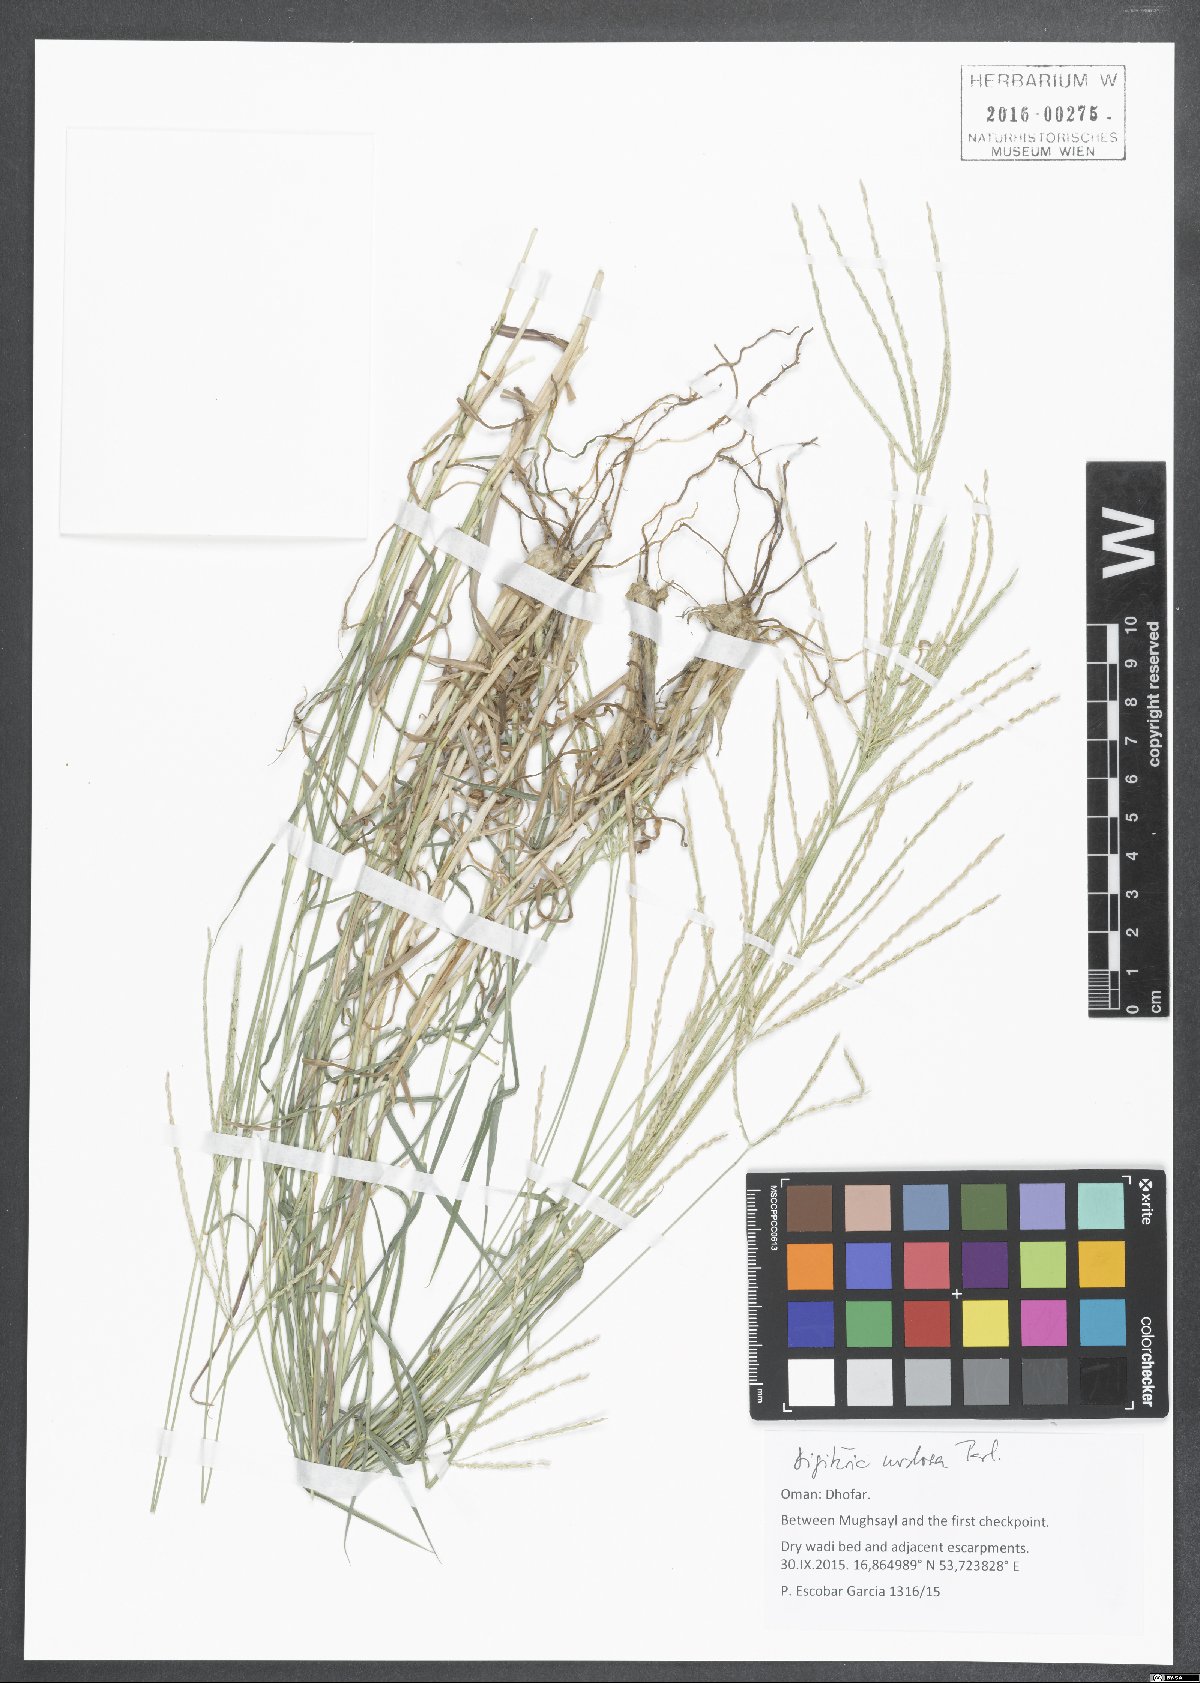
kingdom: Plantae
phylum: Tracheophyta
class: Liliopsida
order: Poales
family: Poaceae
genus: Digitaria
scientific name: Digitaria nodosa
